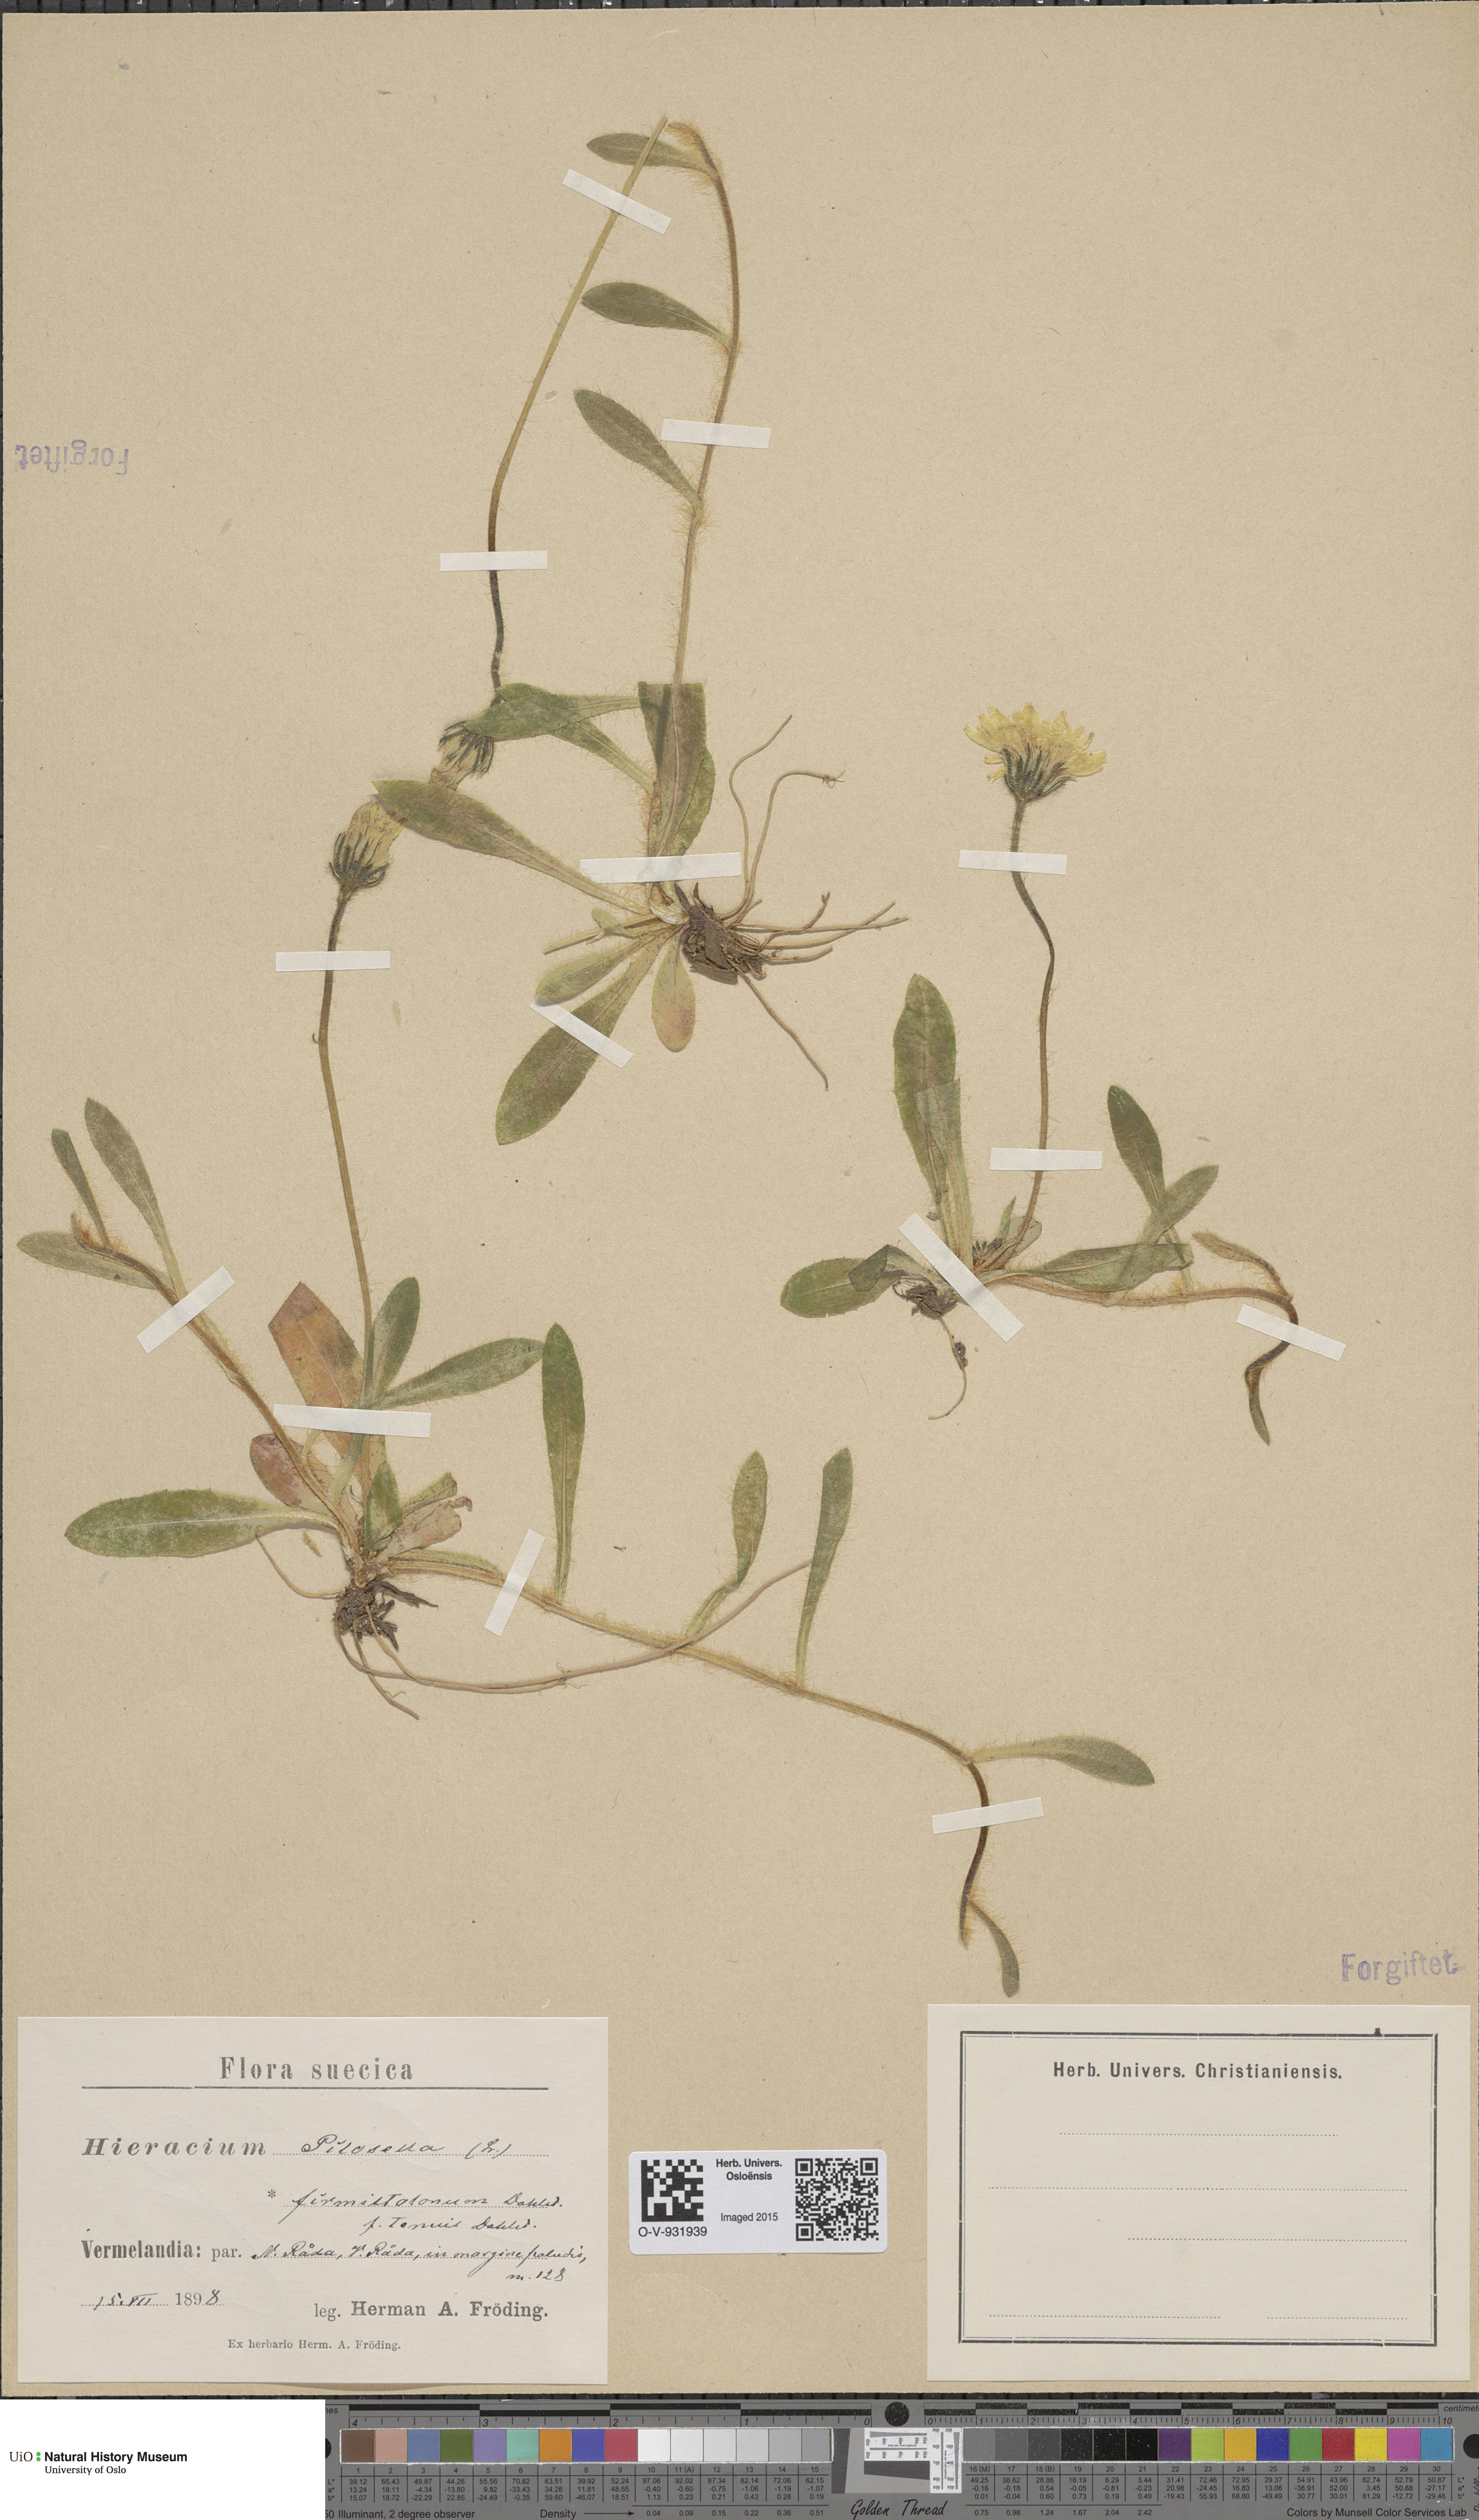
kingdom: Plantae
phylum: Tracheophyta
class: Magnoliopsida
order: Asterales
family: Asteraceae
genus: Pilosella
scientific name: Pilosella officinarum
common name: Mouse-ear hawkweed
